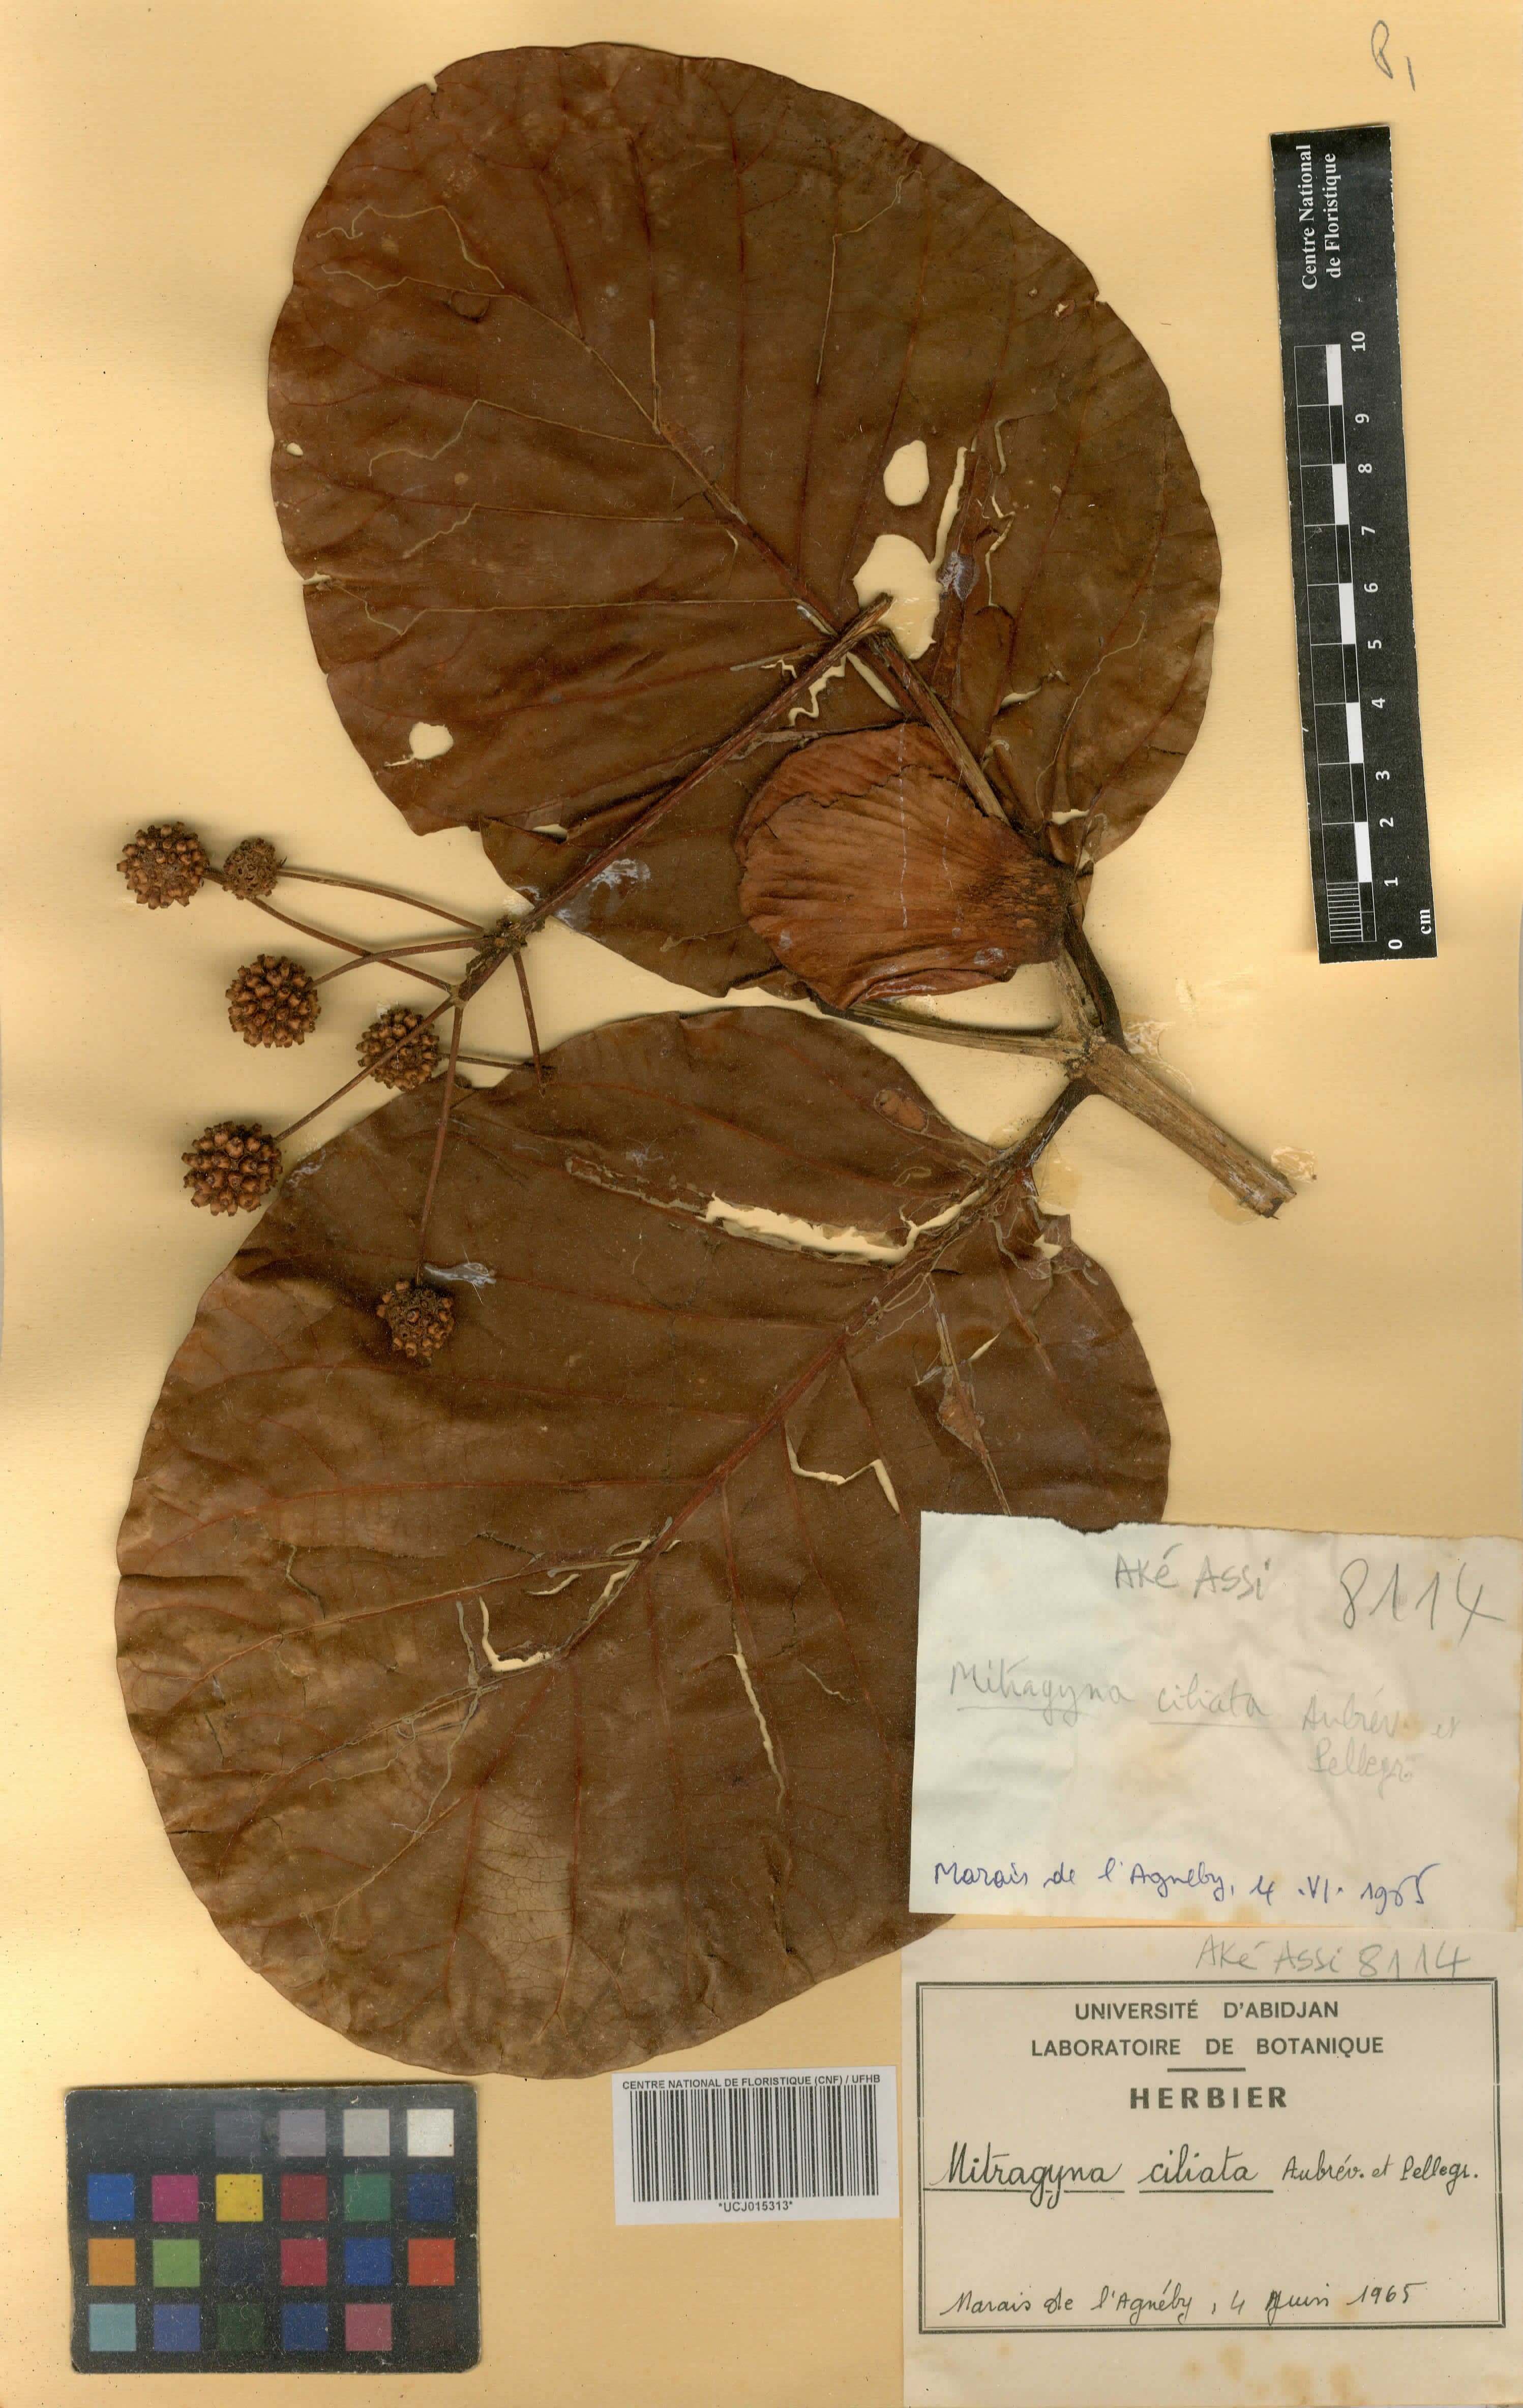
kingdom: Plantae
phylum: Tracheophyta
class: Magnoliopsida
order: Gentianales
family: Rubiaceae
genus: Mitragyna
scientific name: Mitragyna ciliata
